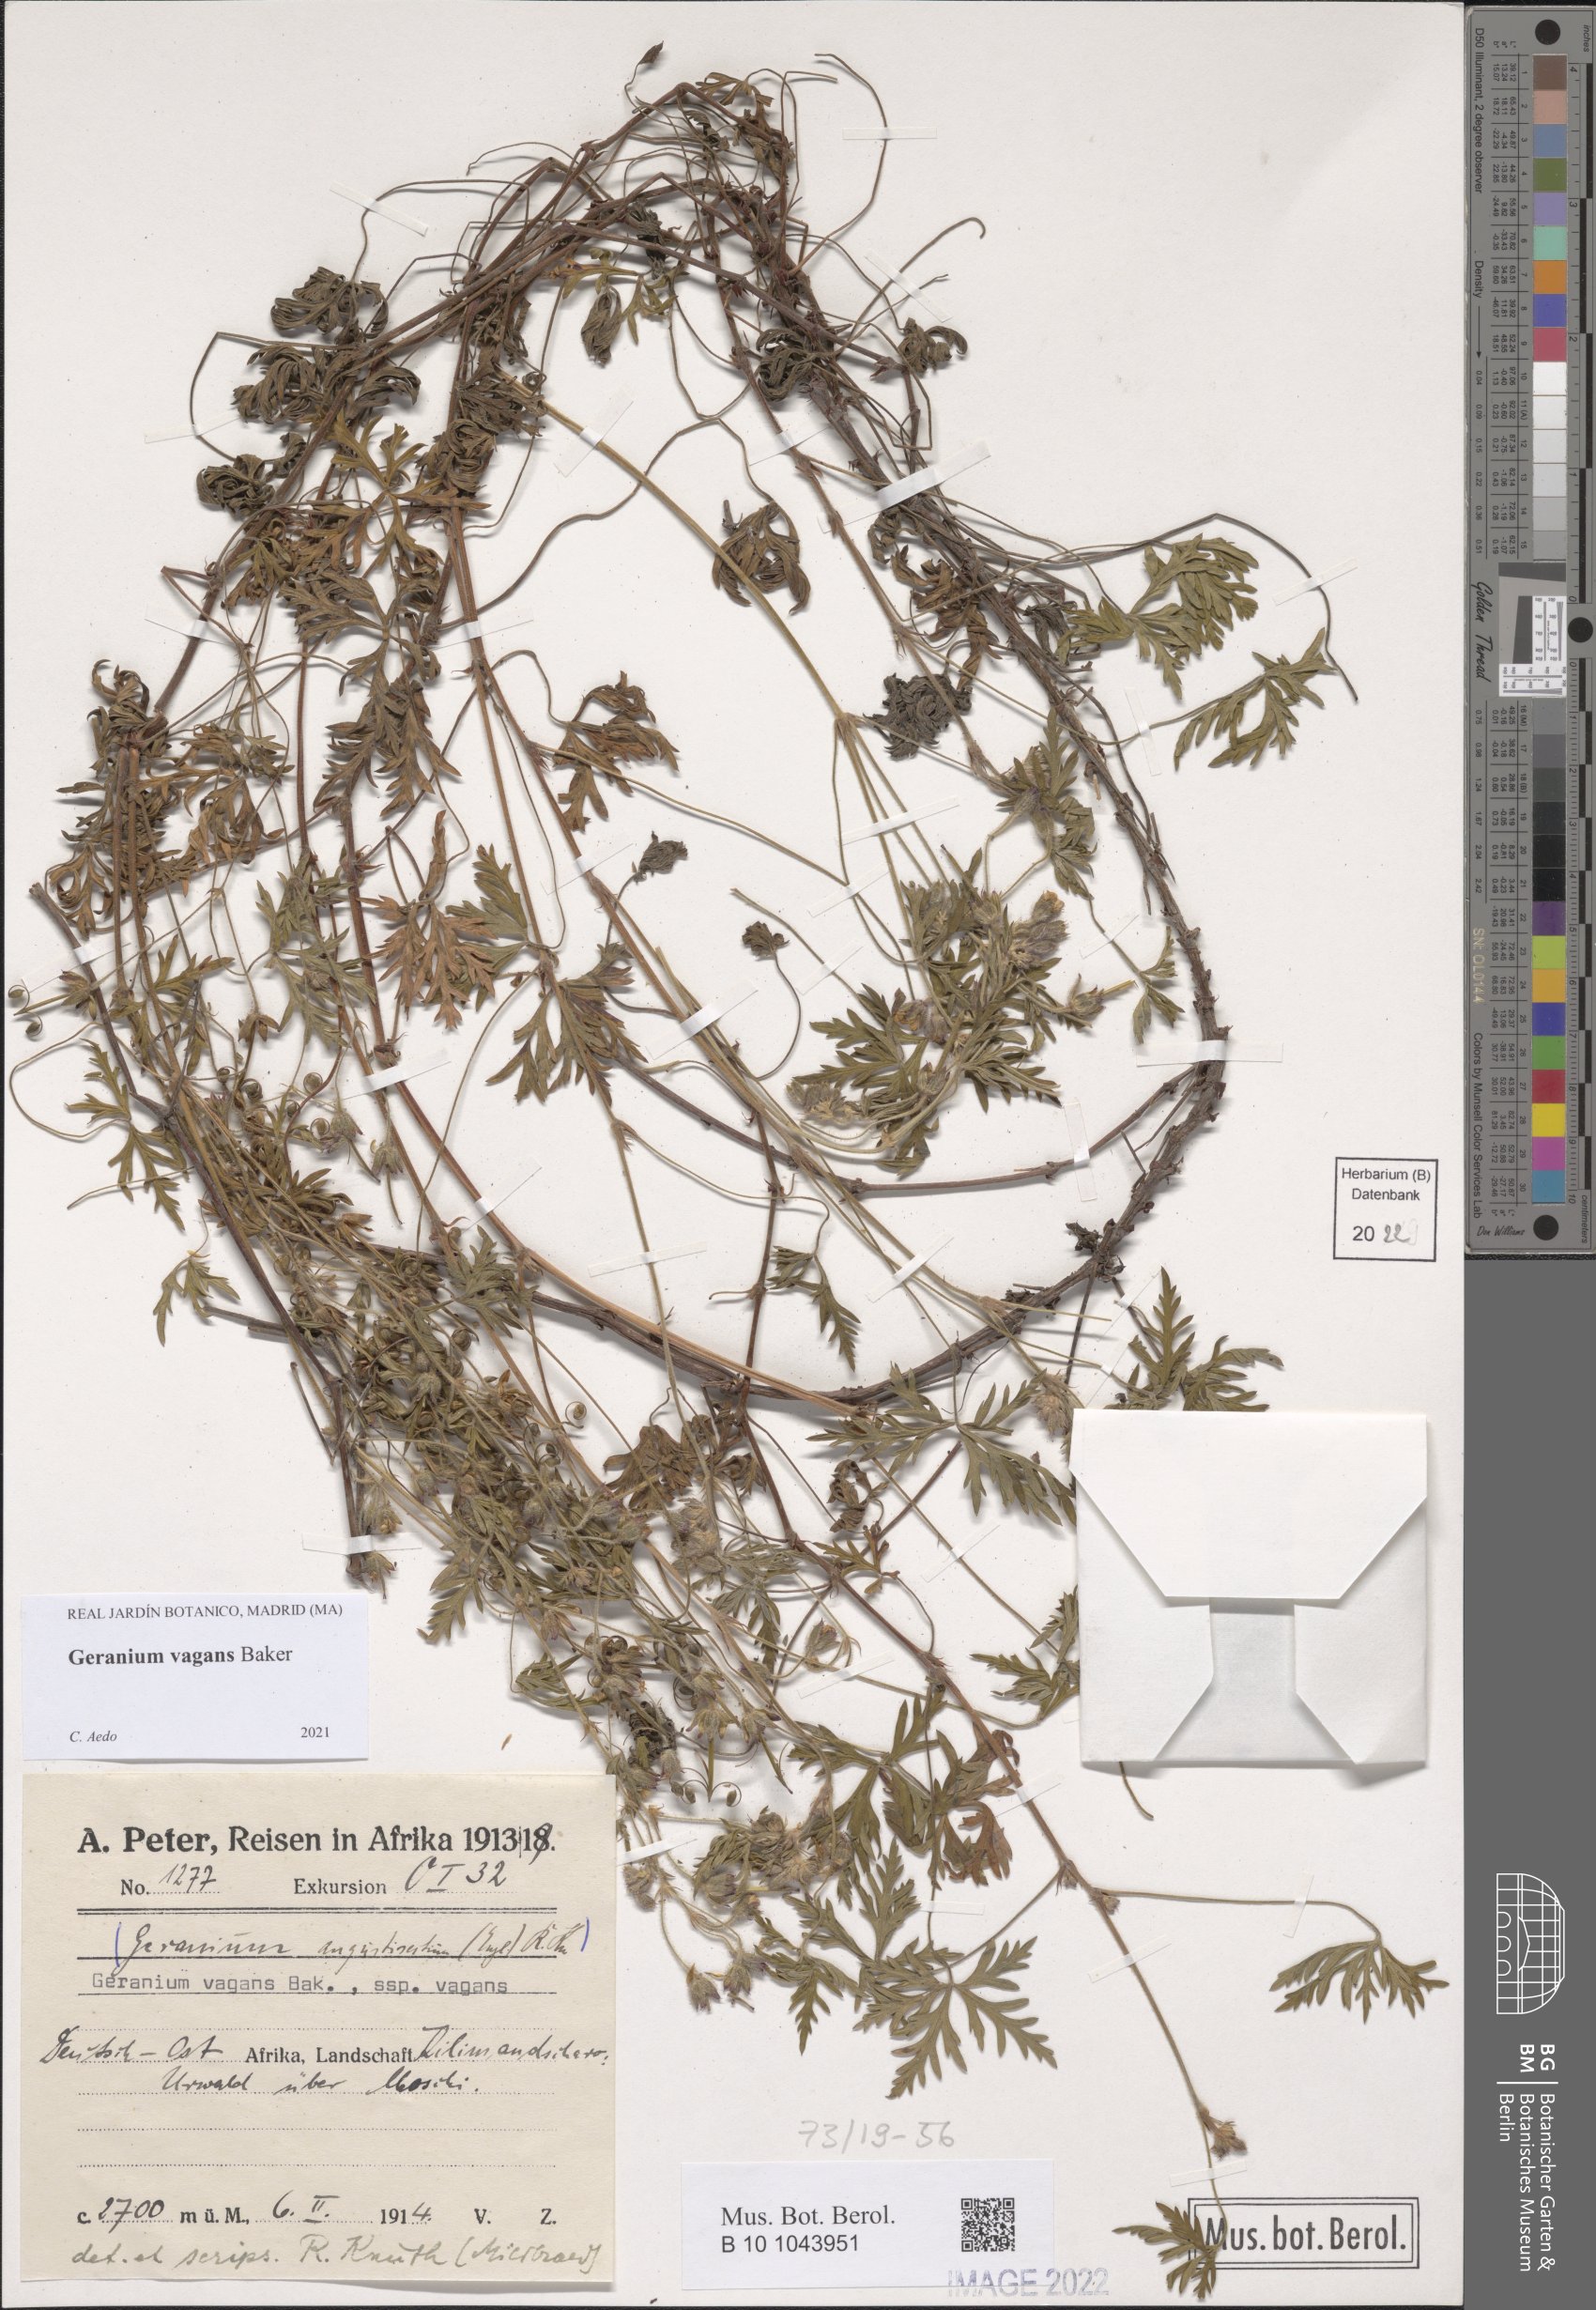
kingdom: Plantae
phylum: Tracheophyta
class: Magnoliopsida
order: Geraniales
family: Geraniaceae
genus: Geranium
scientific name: Geranium vagans
